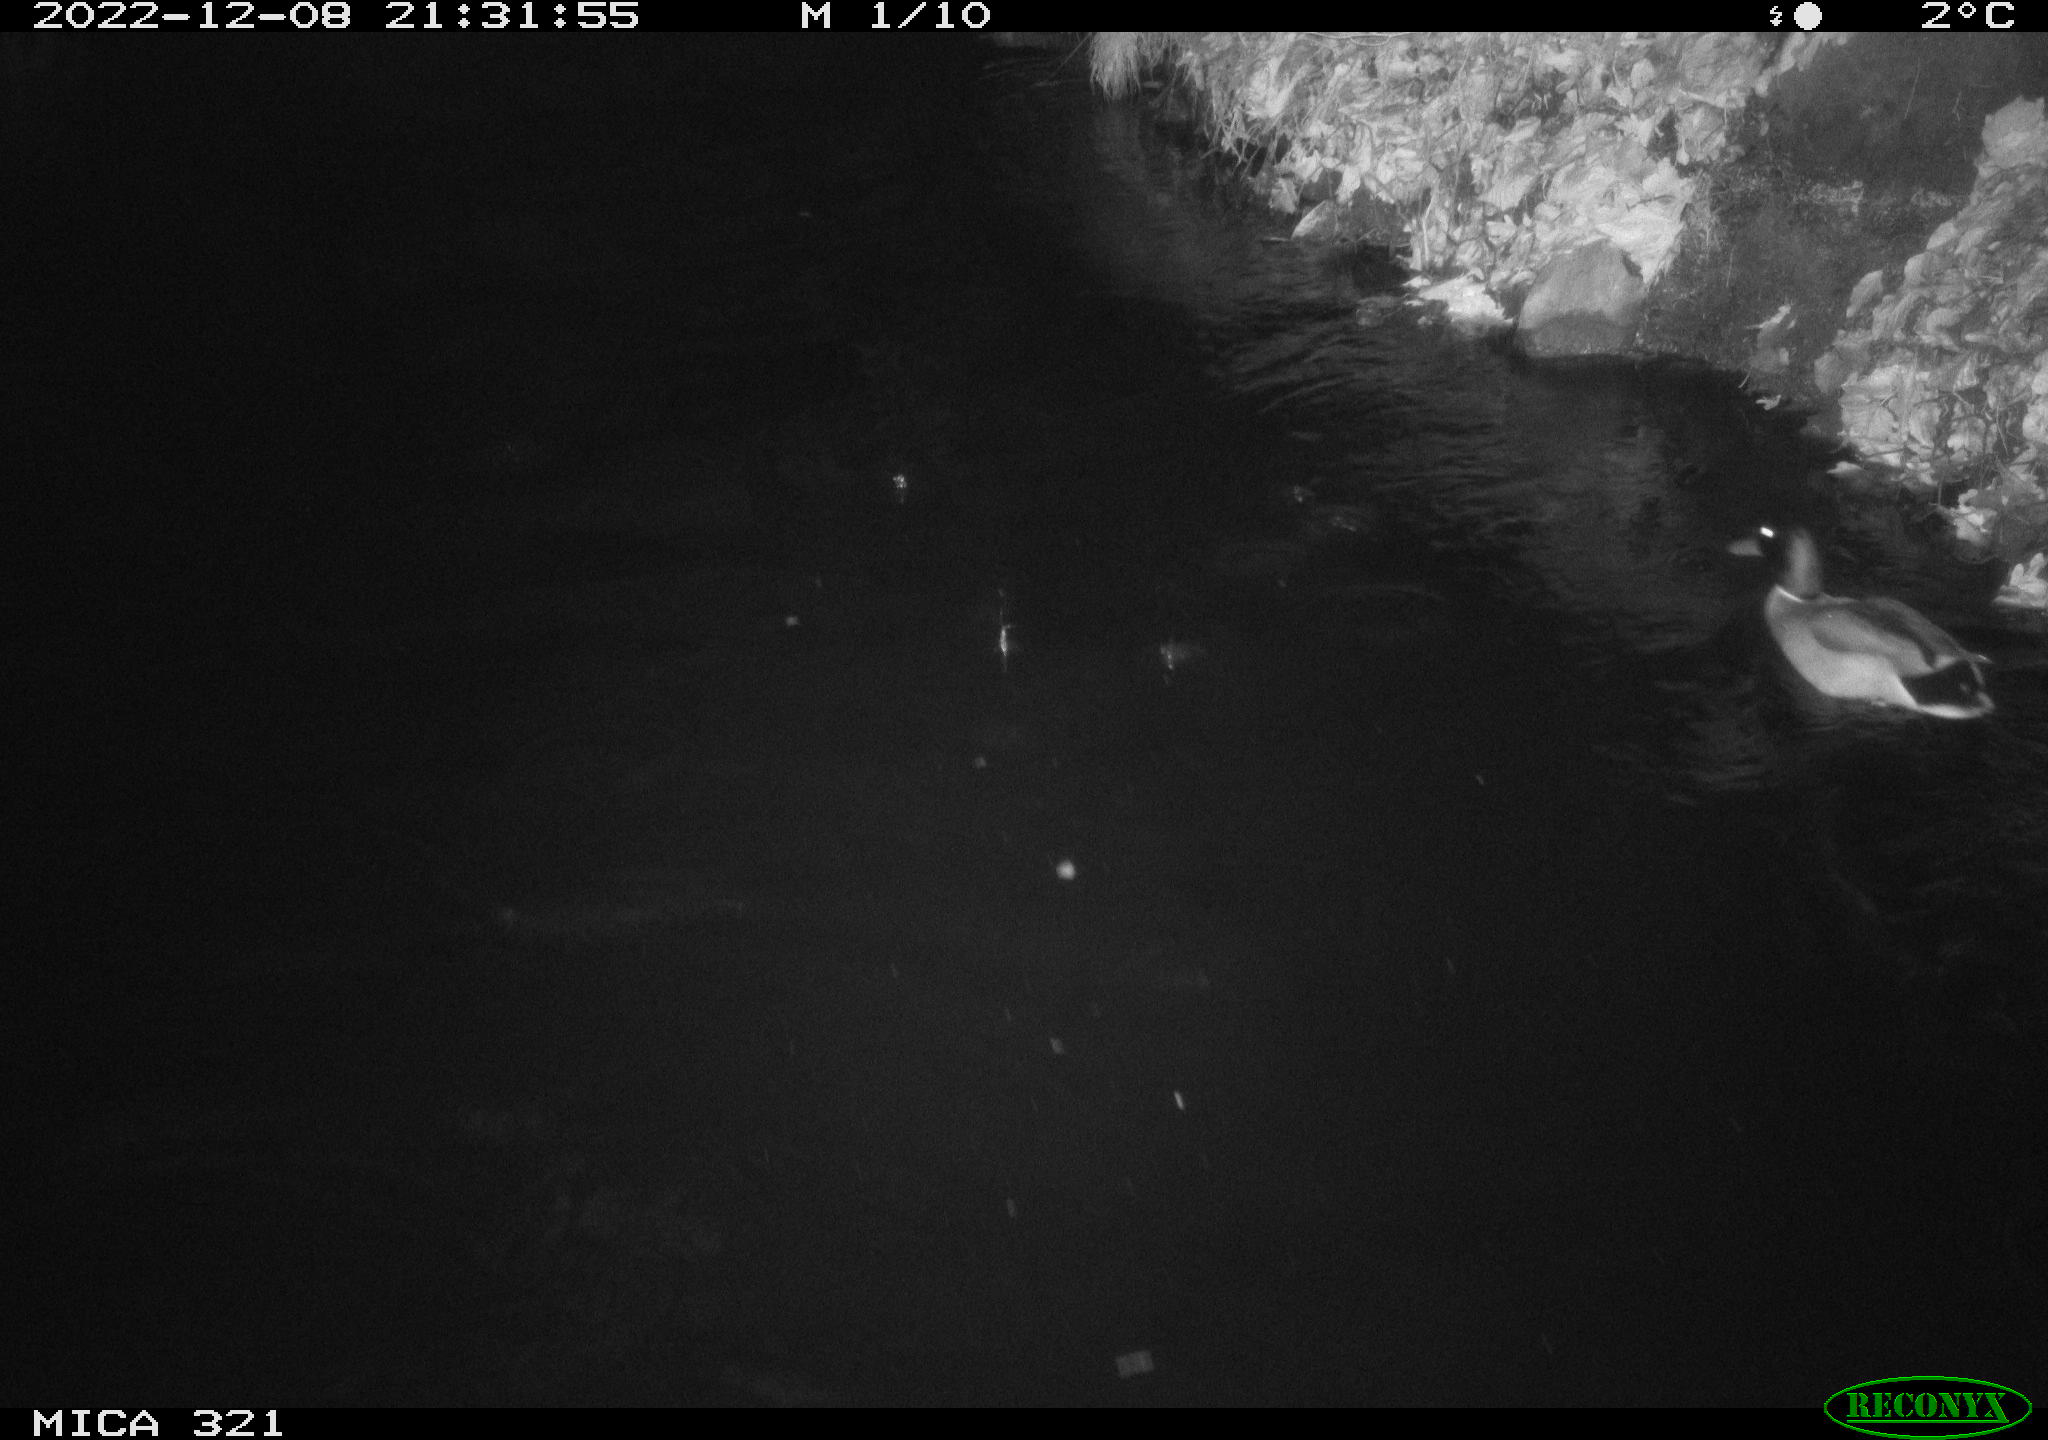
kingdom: Animalia
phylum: Chordata
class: Aves
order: Anseriformes
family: Anatidae
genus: Anas
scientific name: Anas
